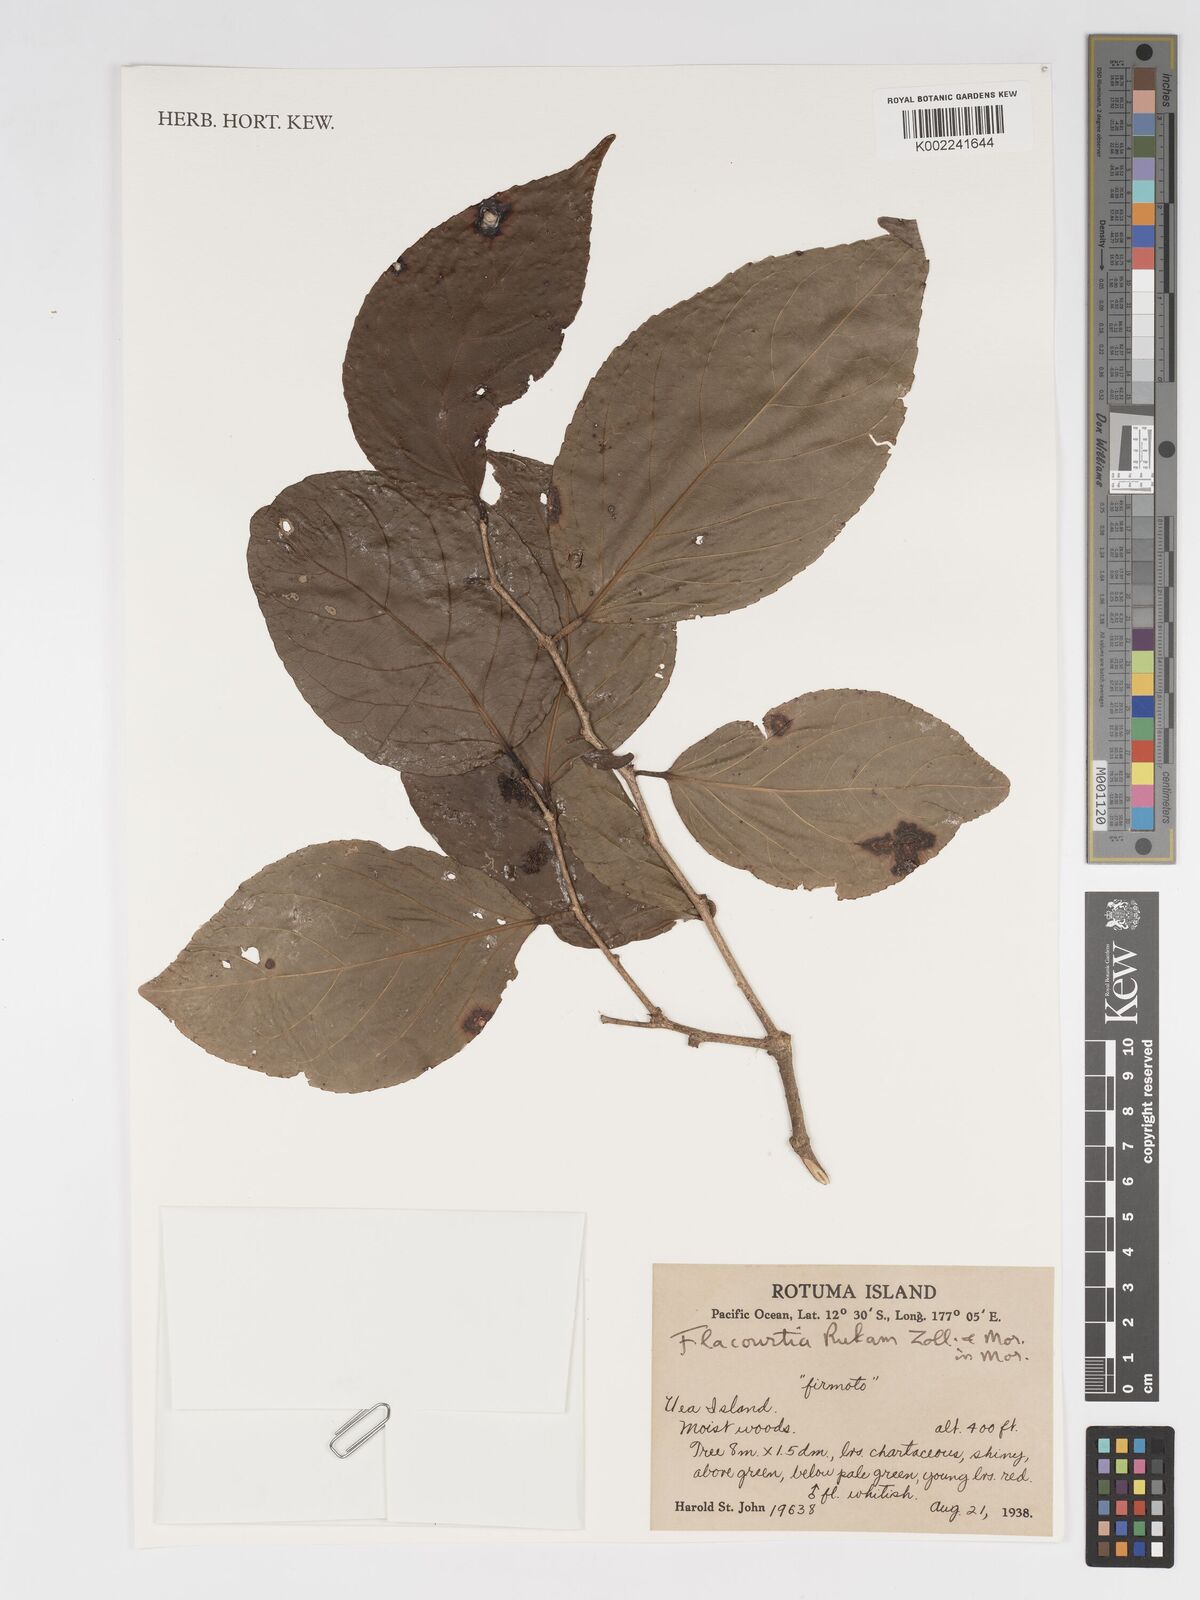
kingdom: Plantae
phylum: Tracheophyta
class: Magnoliopsida
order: Malpighiales
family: Salicaceae
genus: Flacourtia
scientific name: Flacourtia rukam
